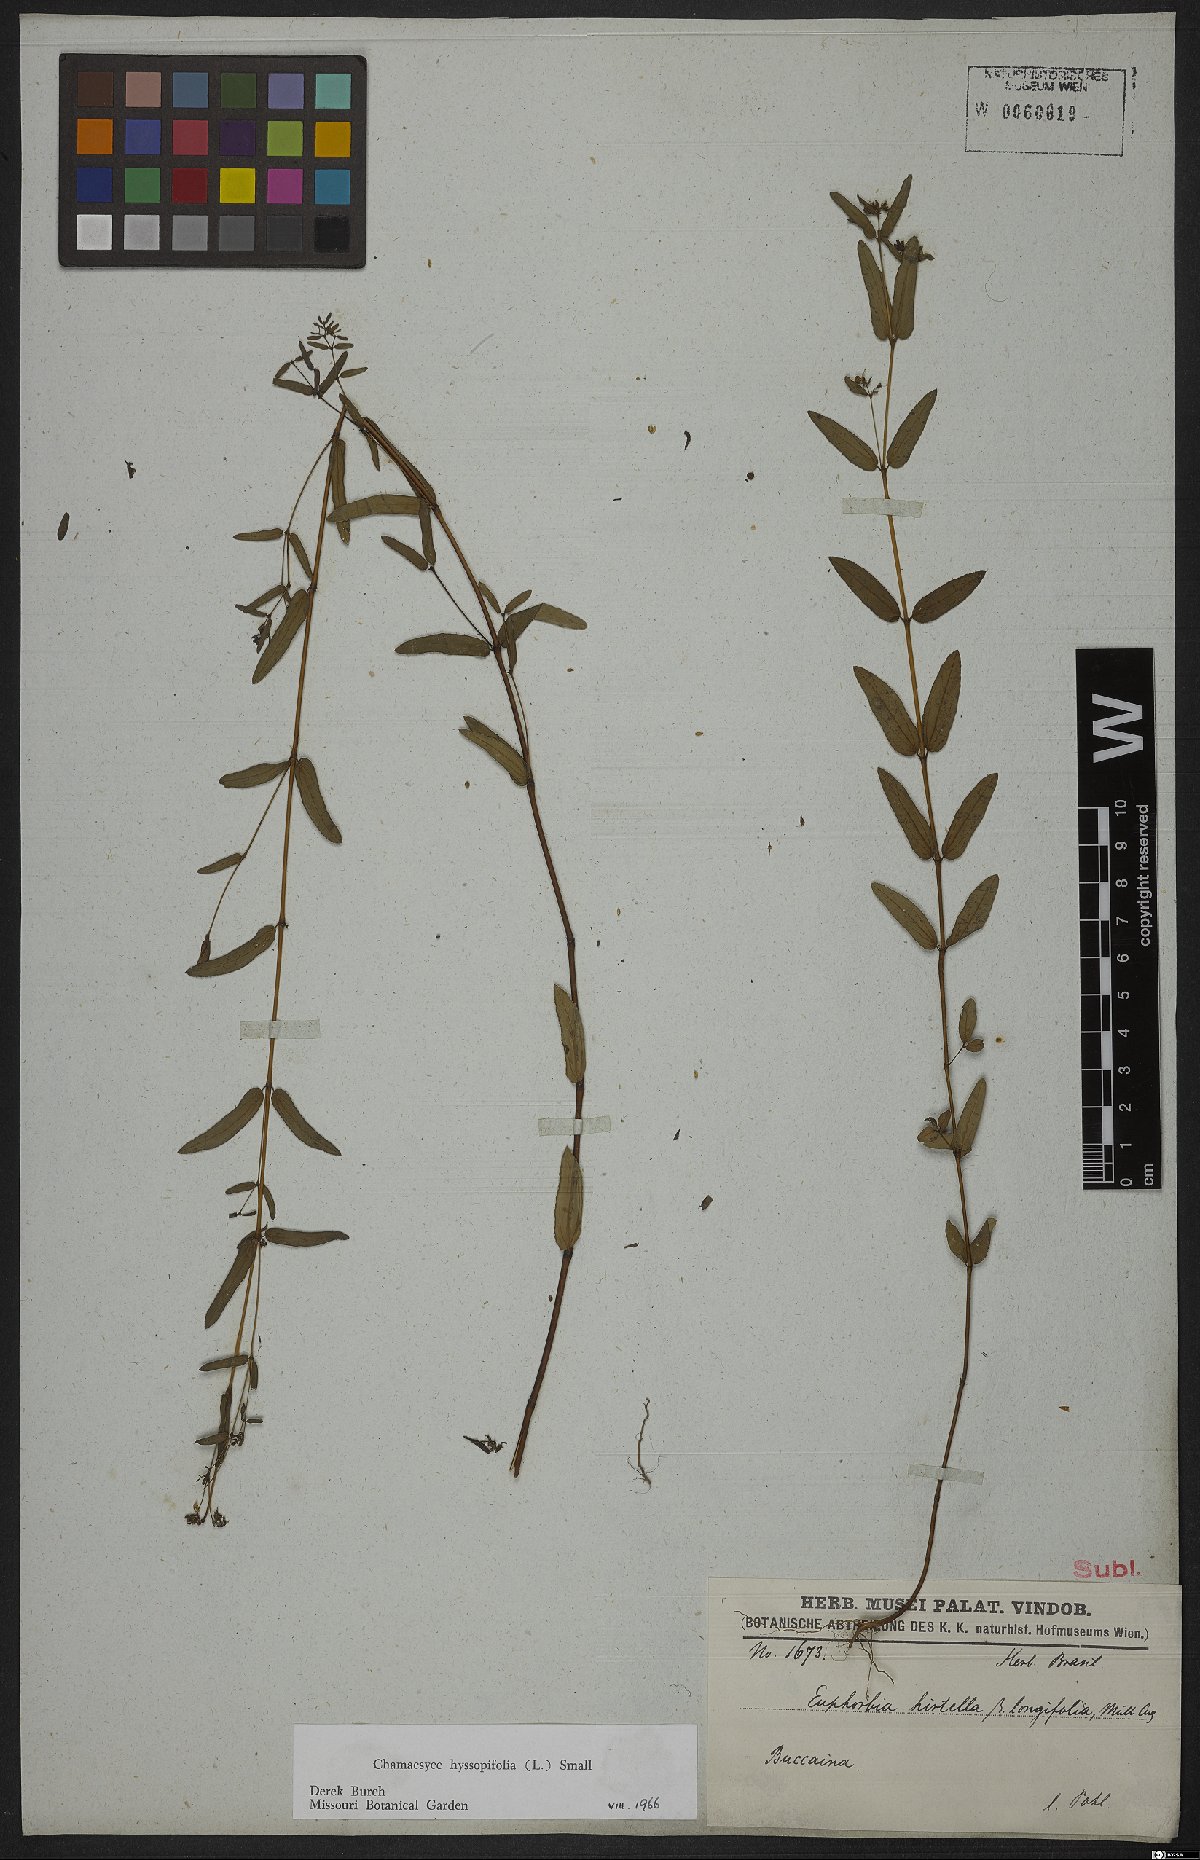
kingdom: Plantae
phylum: Tracheophyta
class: Magnoliopsida
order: Malpighiales
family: Euphorbiaceae
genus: Euphorbia
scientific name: Euphorbia hirtella
